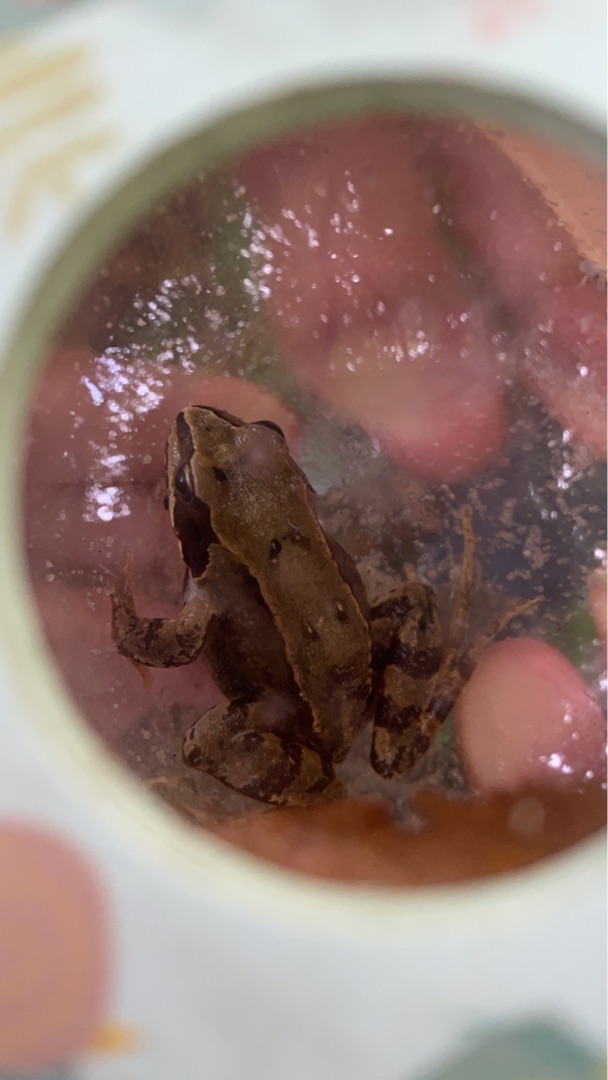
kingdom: Animalia
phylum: Chordata
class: Amphibia
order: Anura
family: Ranidae
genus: Rana
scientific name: Rana temporaria
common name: Butsnudet frø
